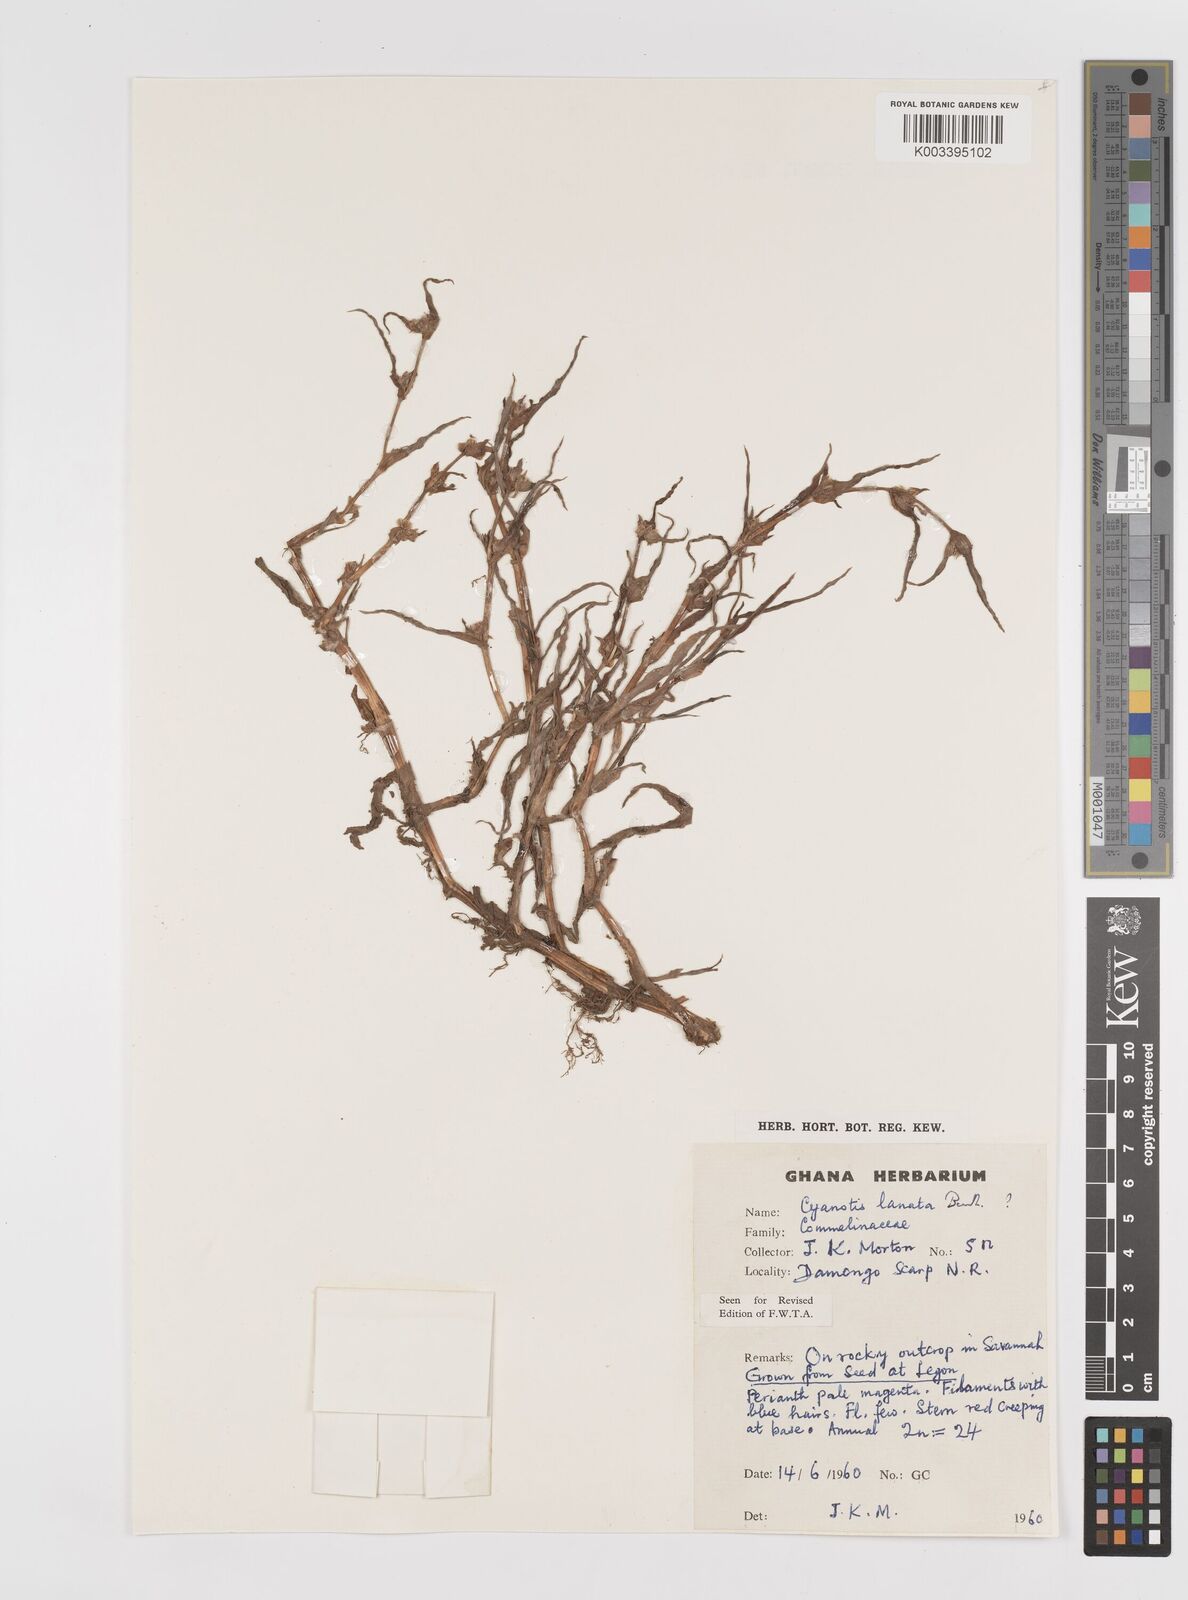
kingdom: Plantae
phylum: Tracheophyta
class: Liliopsida
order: Commelinales
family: Commelinaceae
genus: Cyanotis
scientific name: Cyanotis lanata
